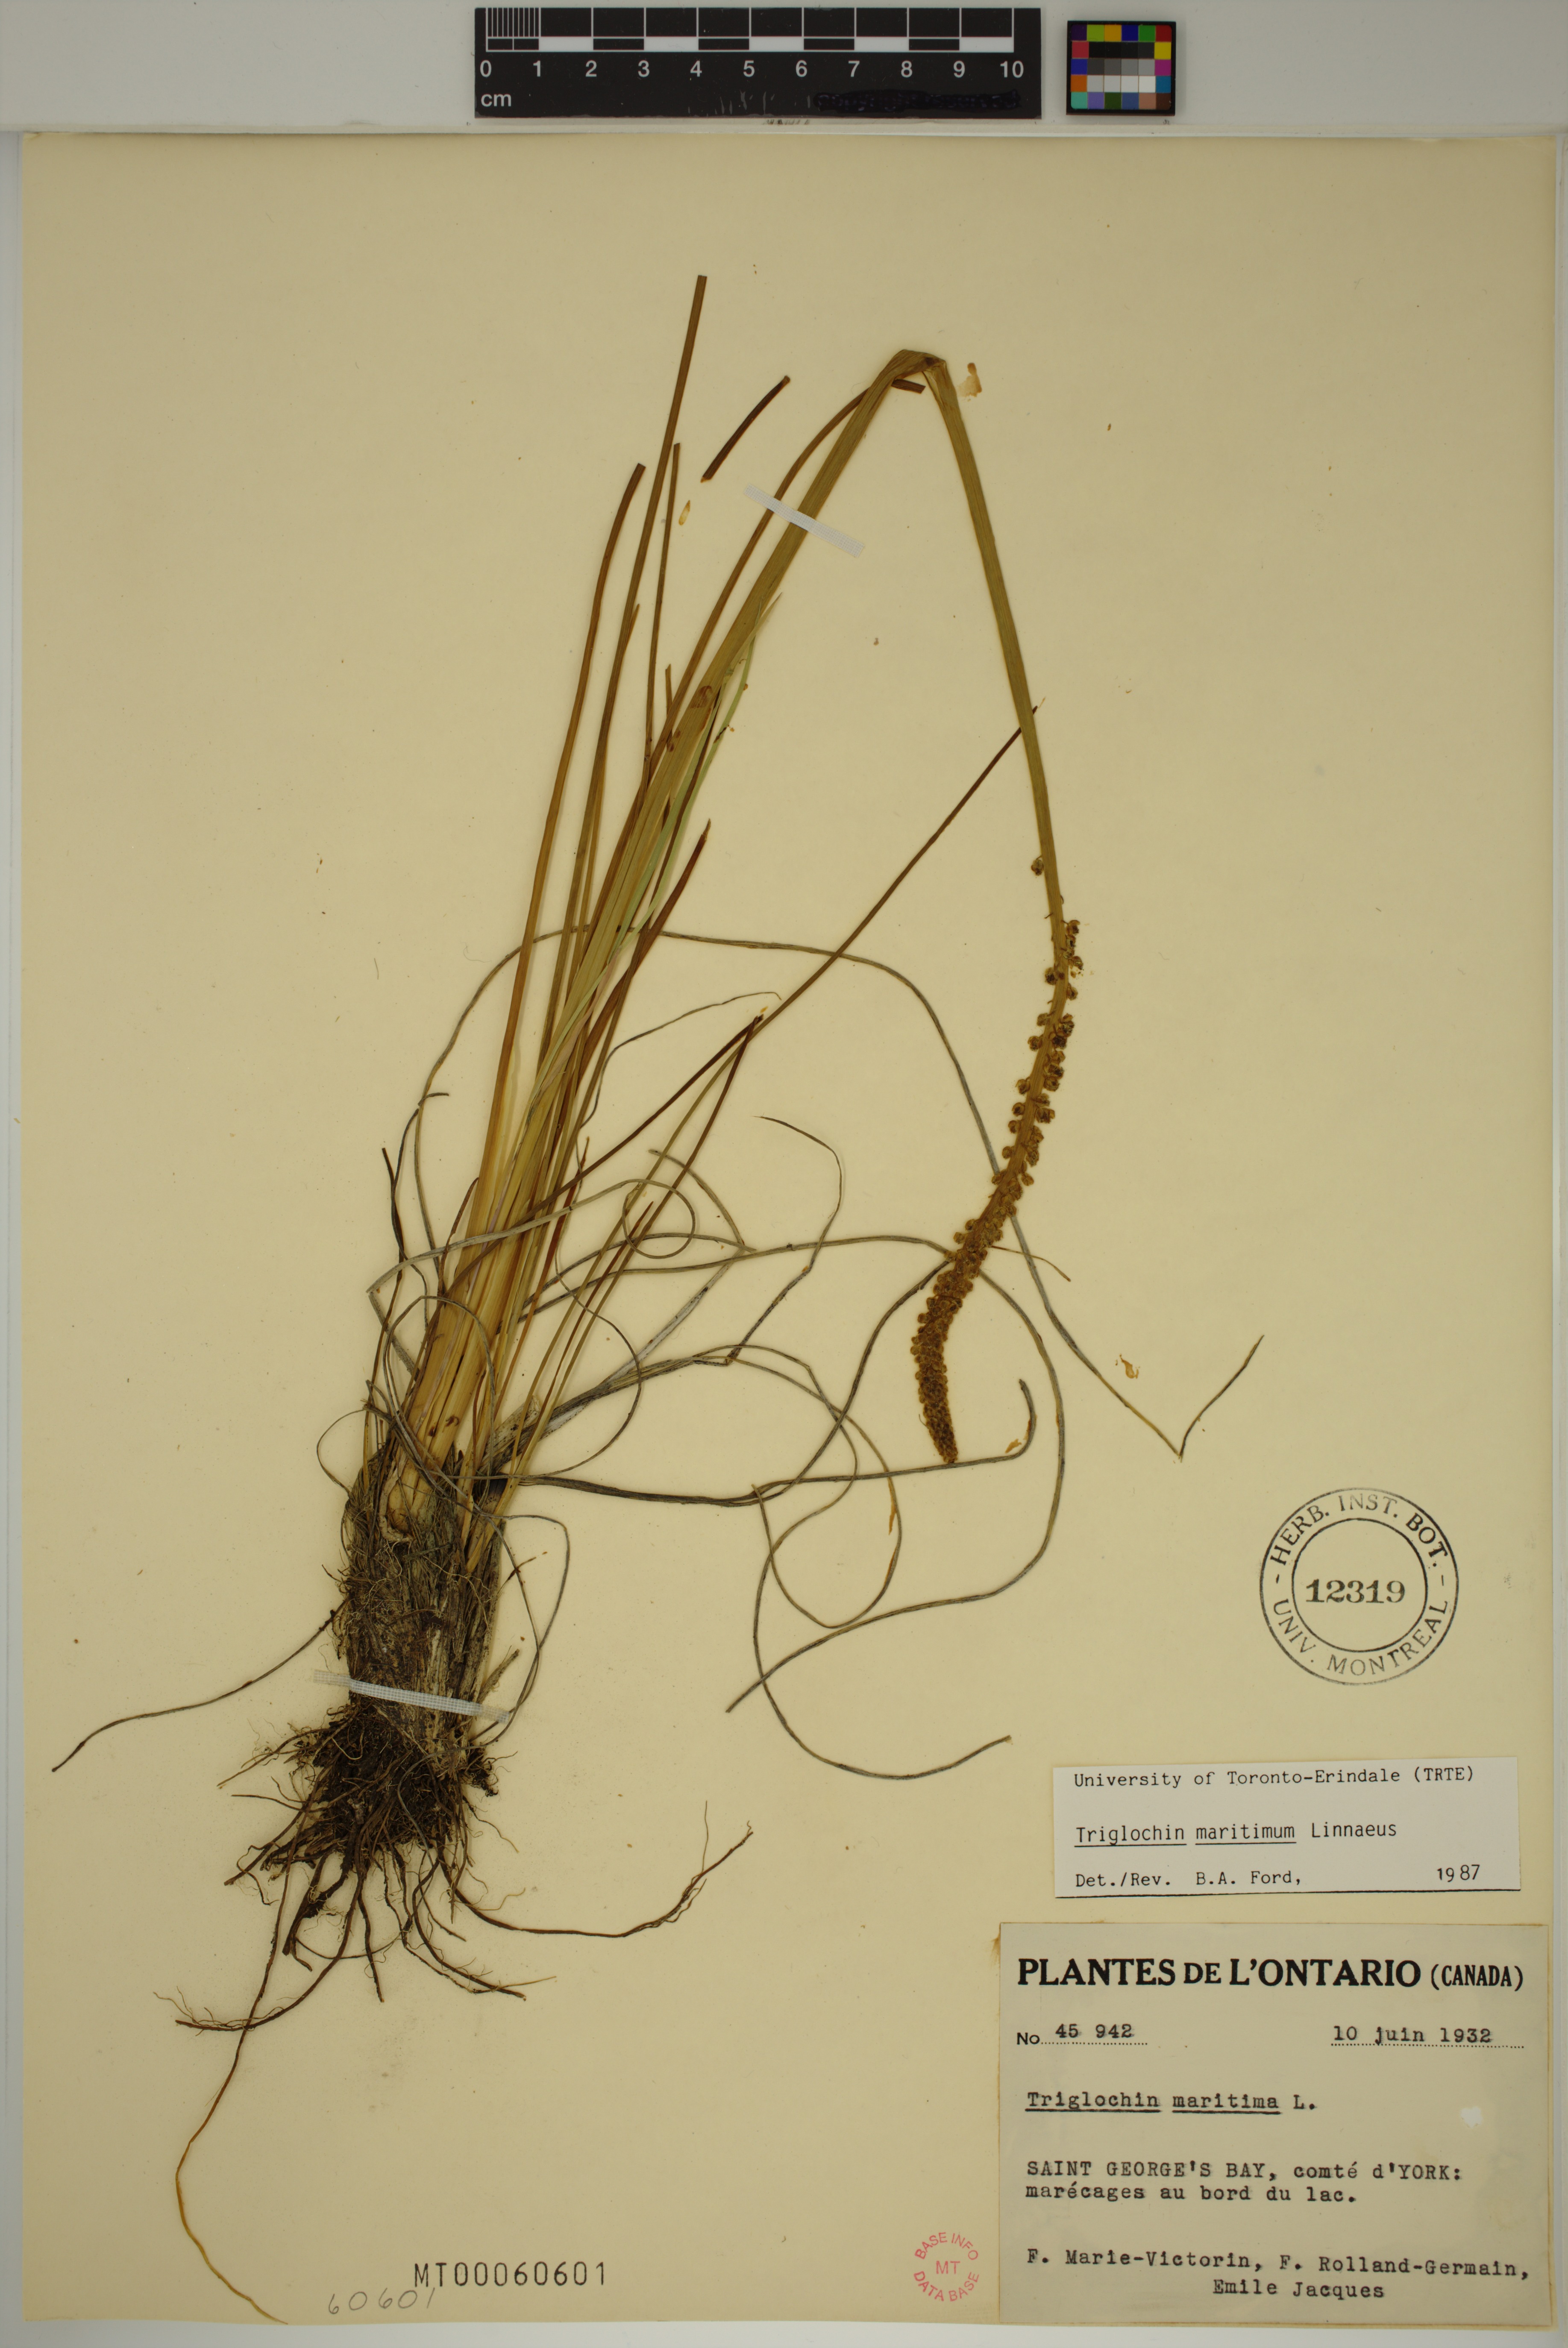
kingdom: Plantae
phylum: Tracheophyta
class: Liliopsida
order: Alismatales
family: Juncaginaceae
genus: Triglochin
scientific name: Triglochin maritima
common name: Sea arrowgrass
